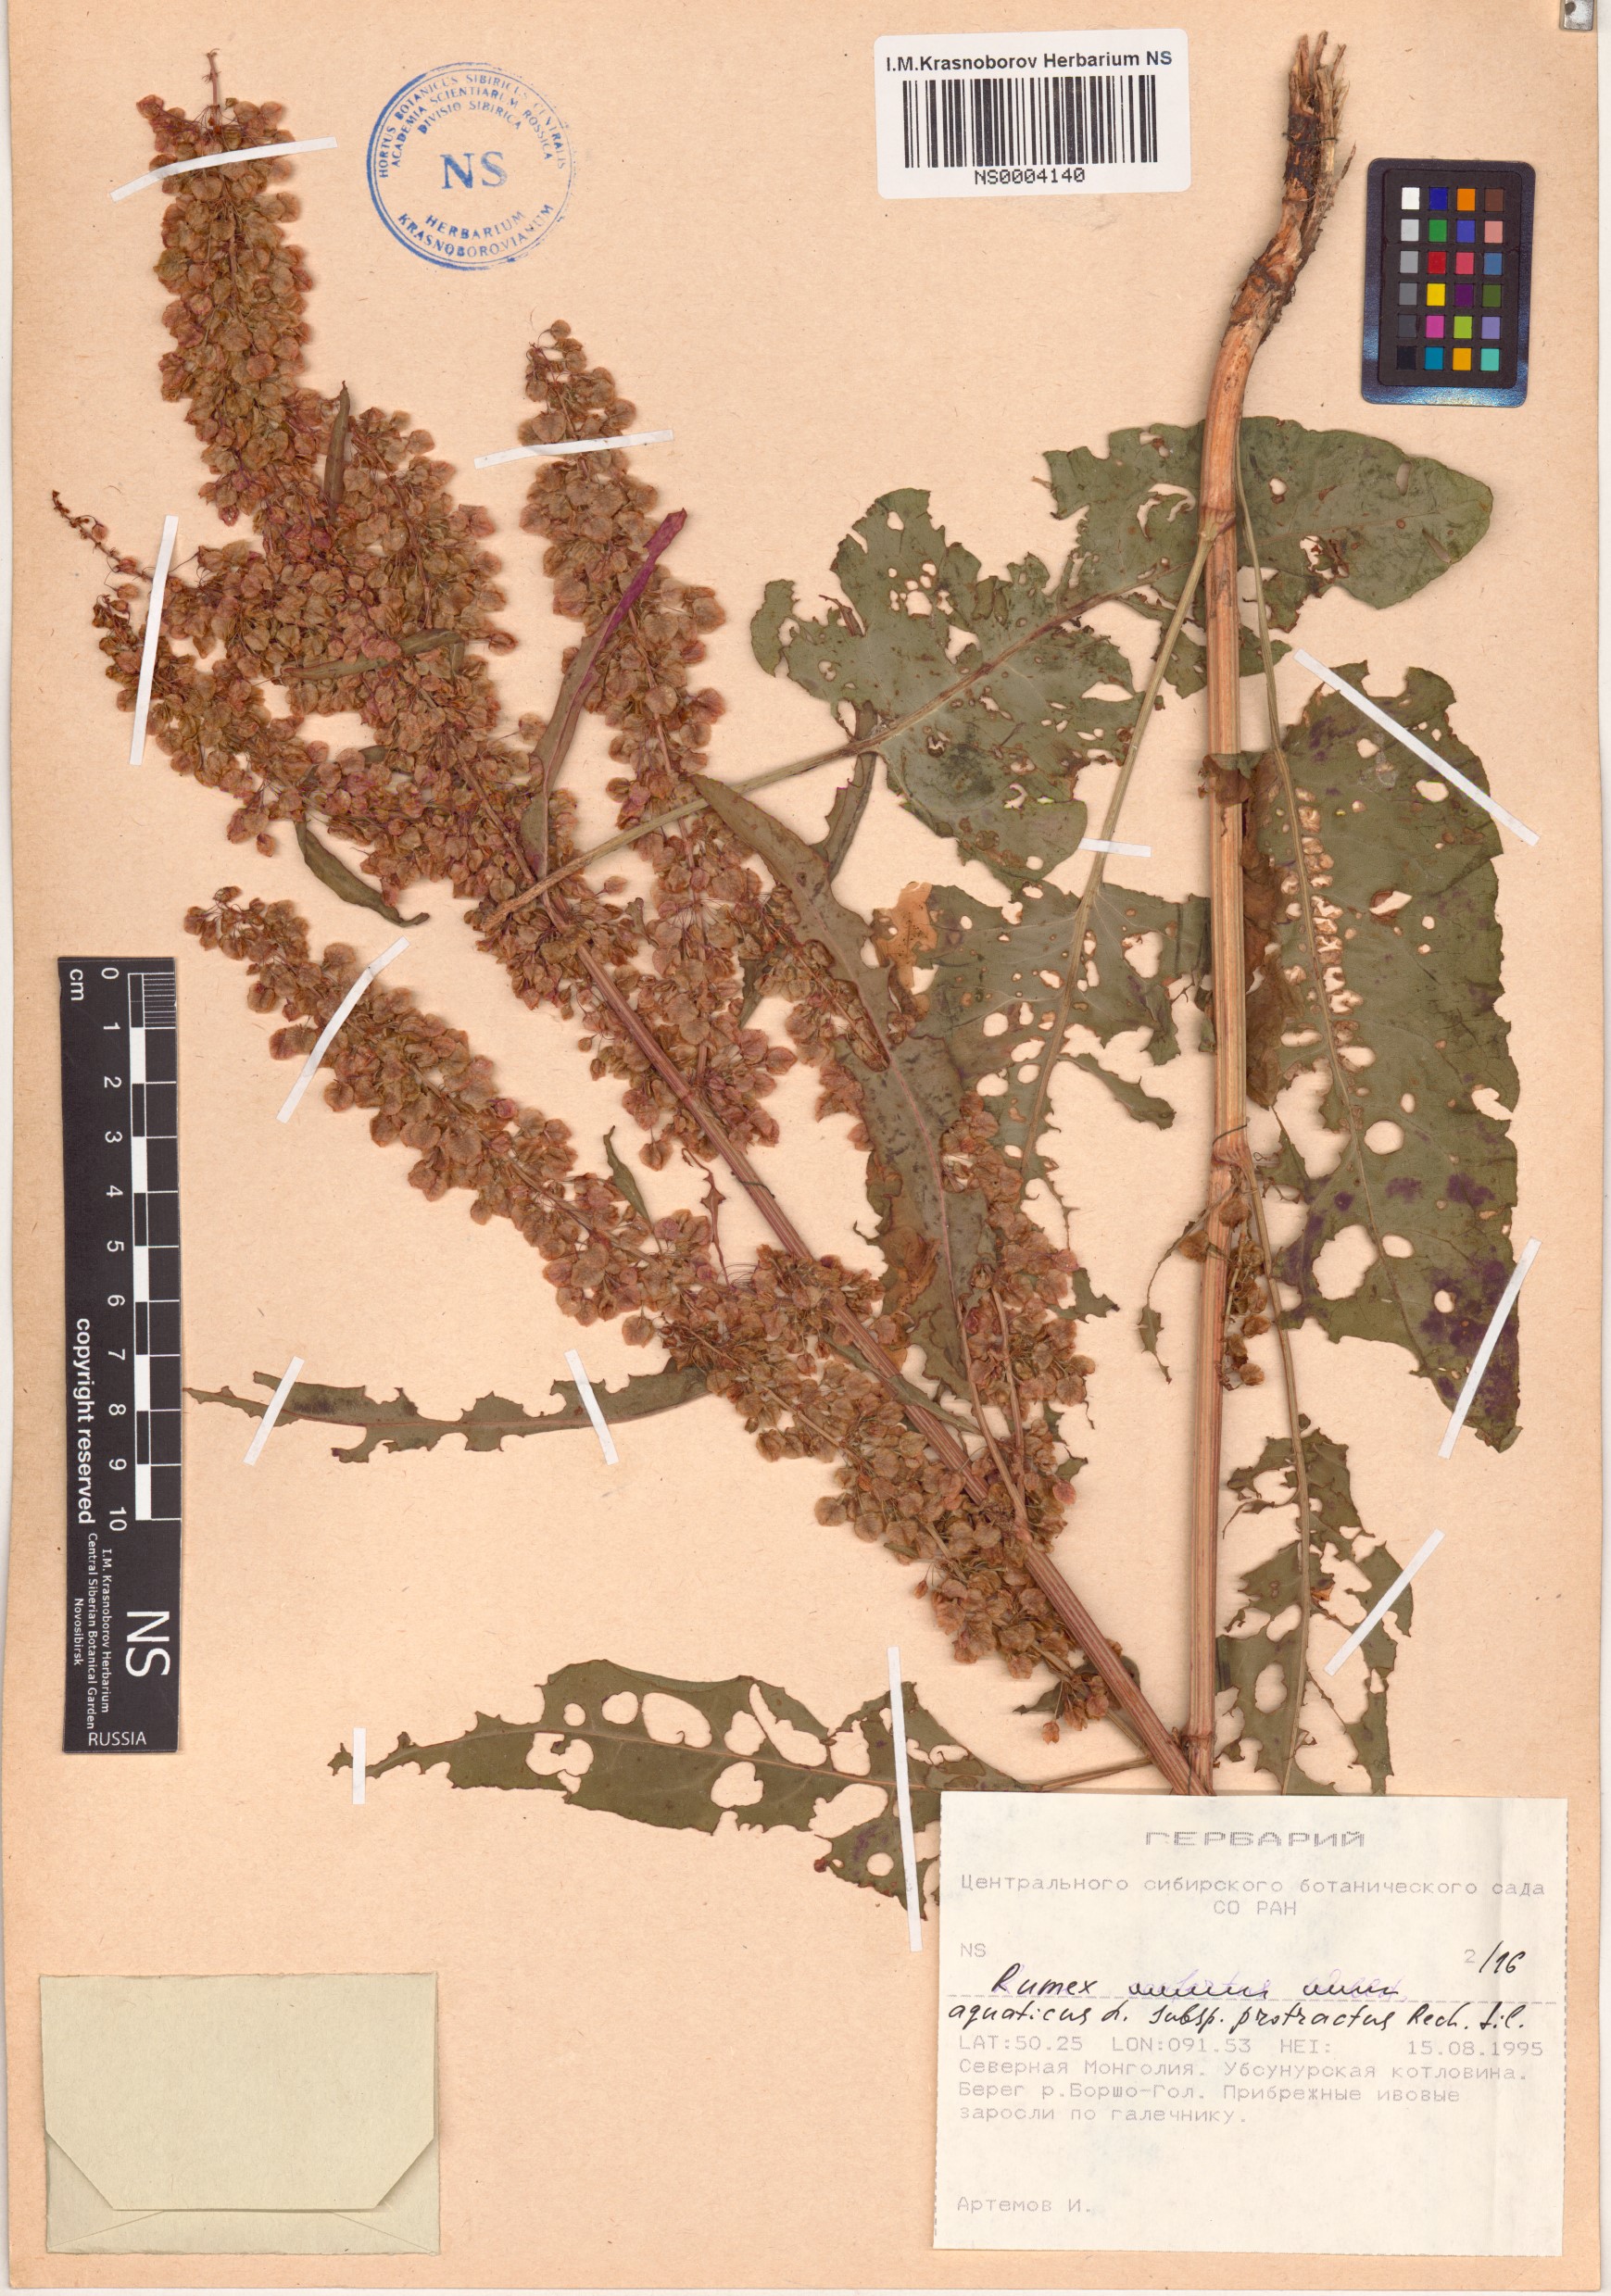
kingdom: Plantae
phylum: Tracheophyta
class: Magnoliopsida
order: Caryophyllales
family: Polygonaceae
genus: Rumex
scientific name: Rumex aquaticus
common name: Scottish dock
